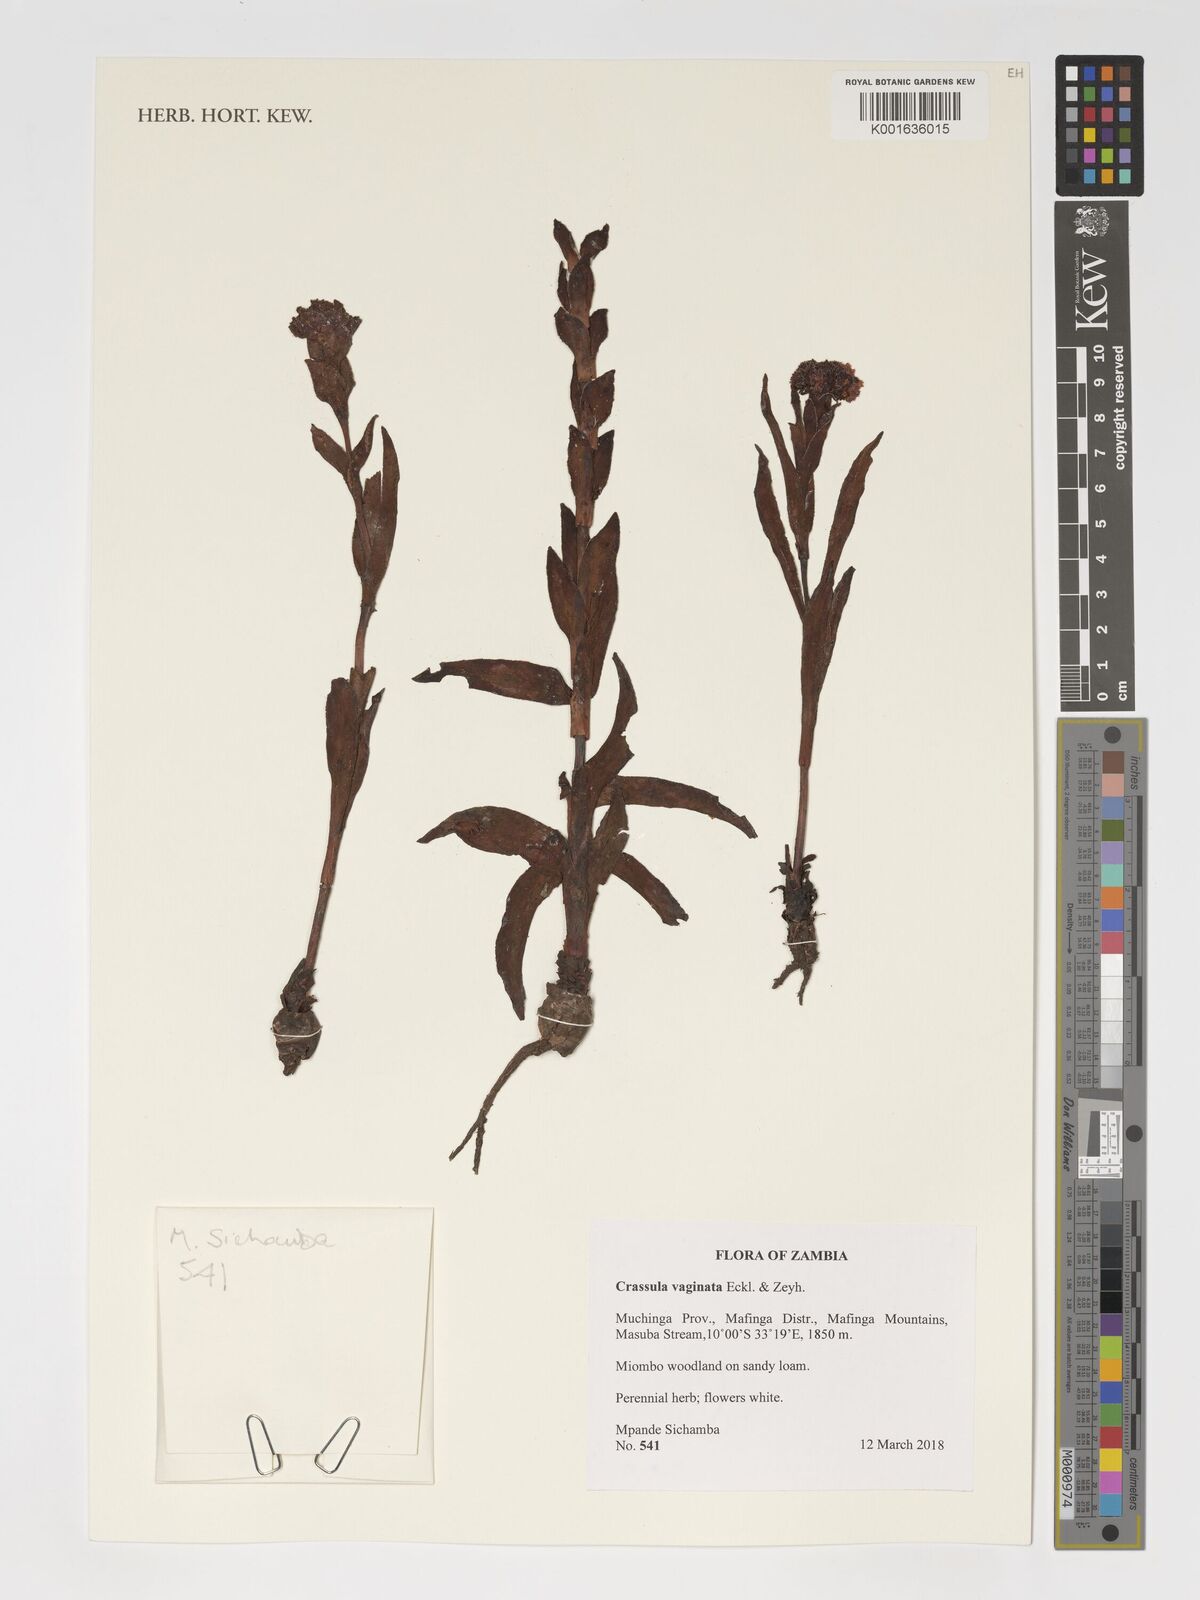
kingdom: Plantae
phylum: Tracheophyta
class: Magnoliopsida
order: Saxifragales
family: Crassulaceae
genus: Crassula
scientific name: Crassula vaginata
